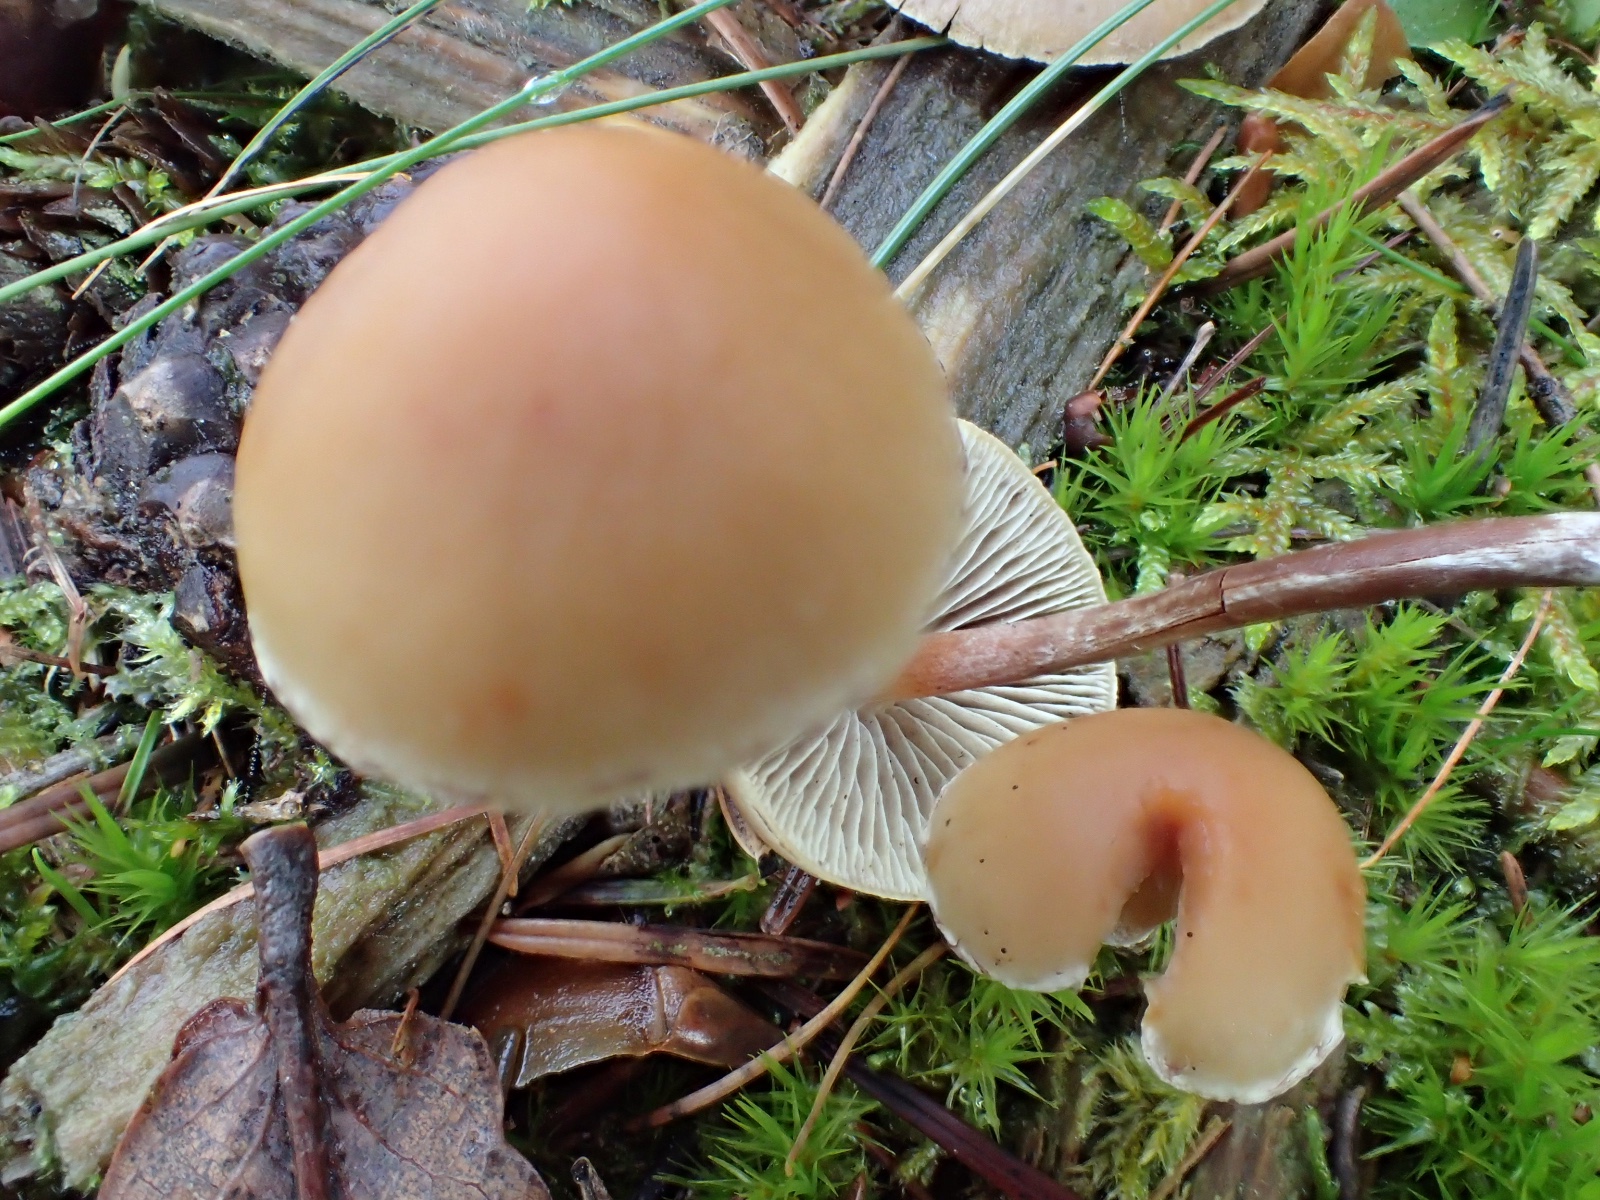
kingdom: Fungi
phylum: Basidiomycota
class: Agaricomycetes
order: Agaricales
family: Strophariaceae
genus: Hypholoma
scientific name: Hypholoma marginatum
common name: enlig svovlhat
